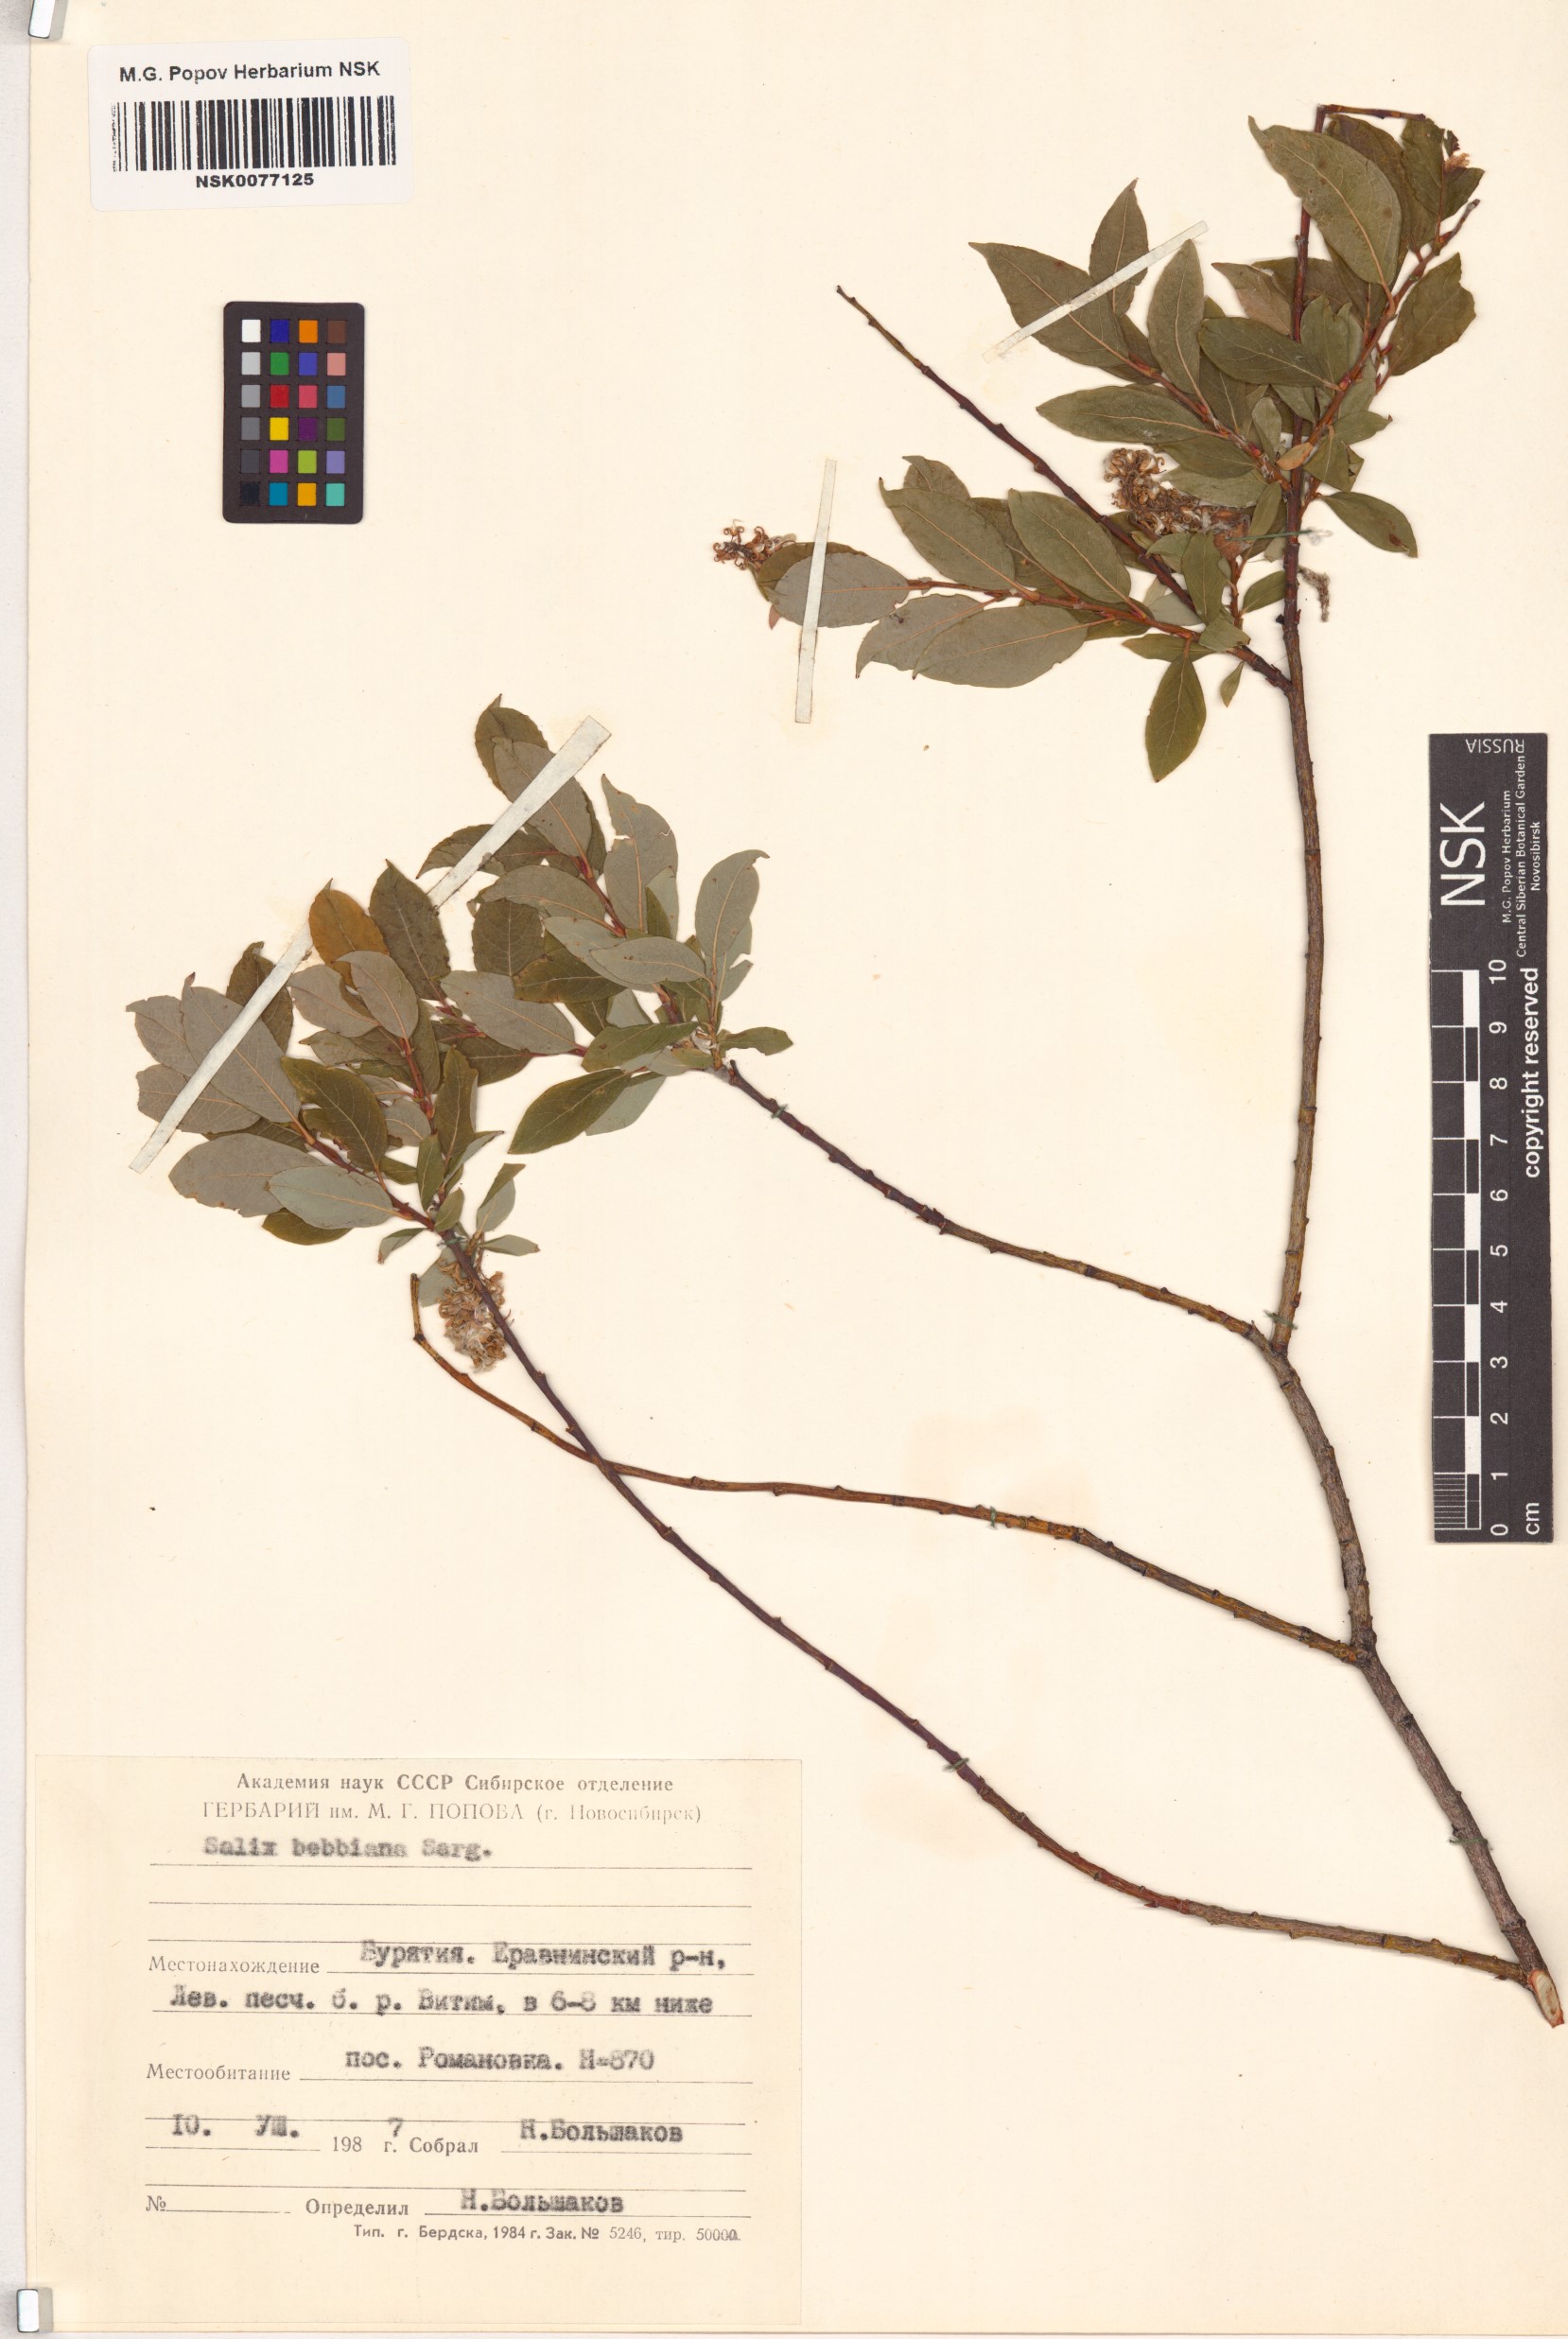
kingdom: Plantae
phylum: Tracheophyta
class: Magnoliopsida
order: Malpighiales
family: Salicaceae
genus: Salix
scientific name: Salix bebbiana
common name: Bebb's willow
